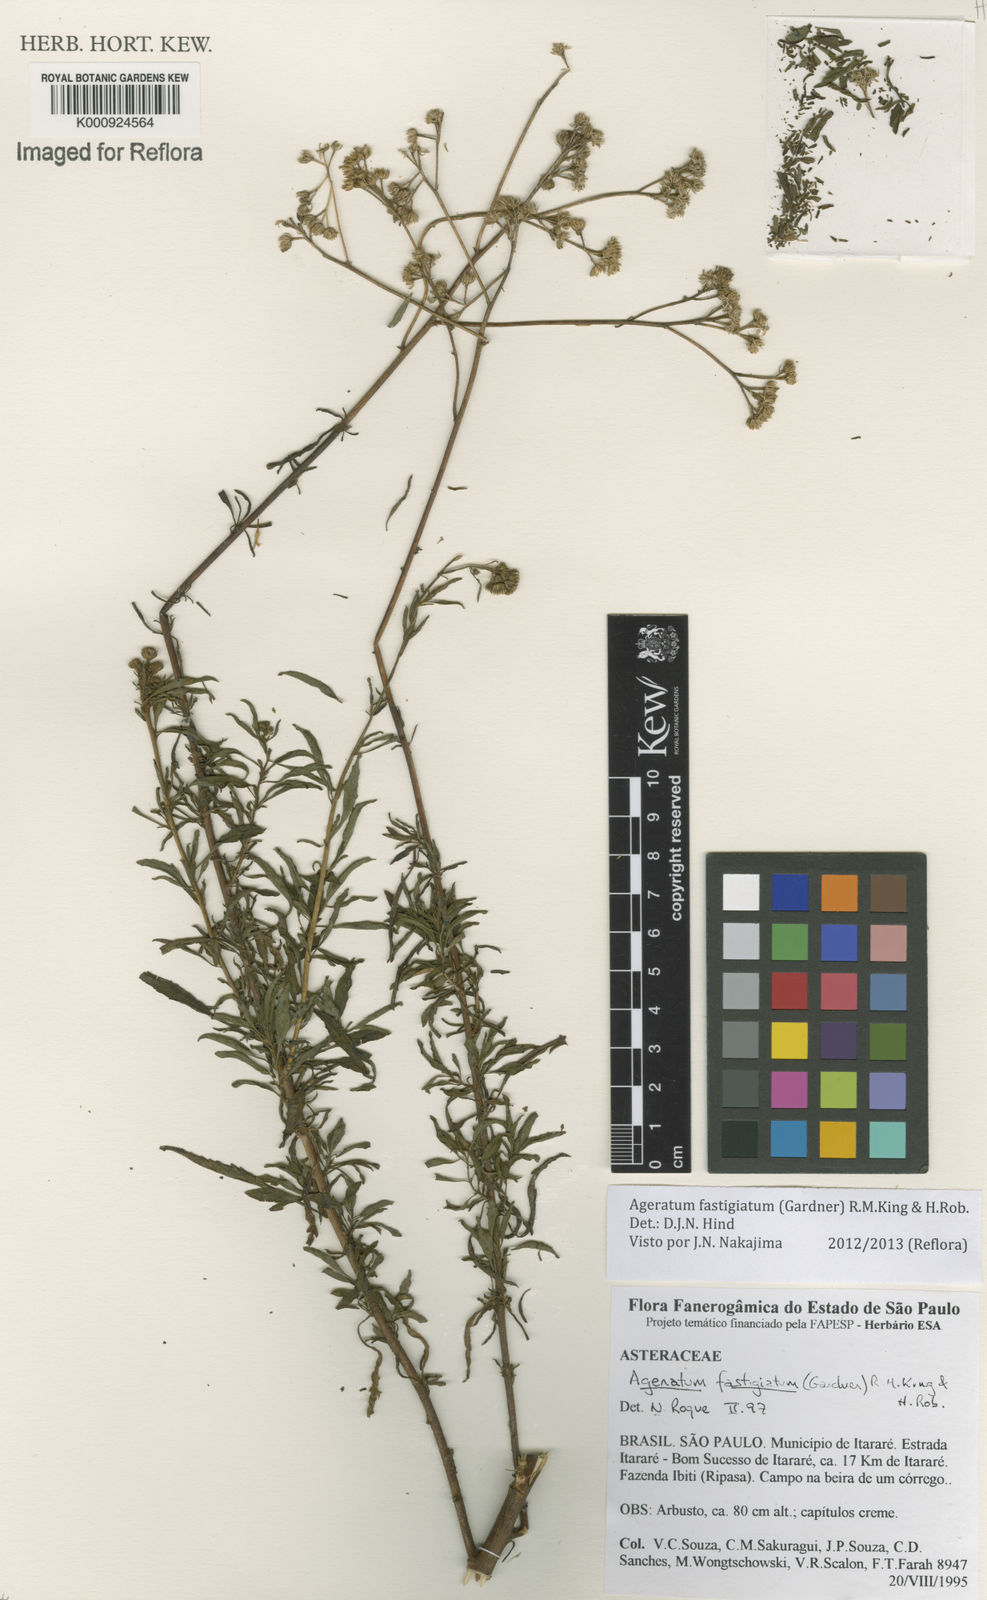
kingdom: Plantae
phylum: Tracheophyta
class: Magnoliopsida
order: Asterales
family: Asteraceae
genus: Ageratum
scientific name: Ageratum fastigiatum
